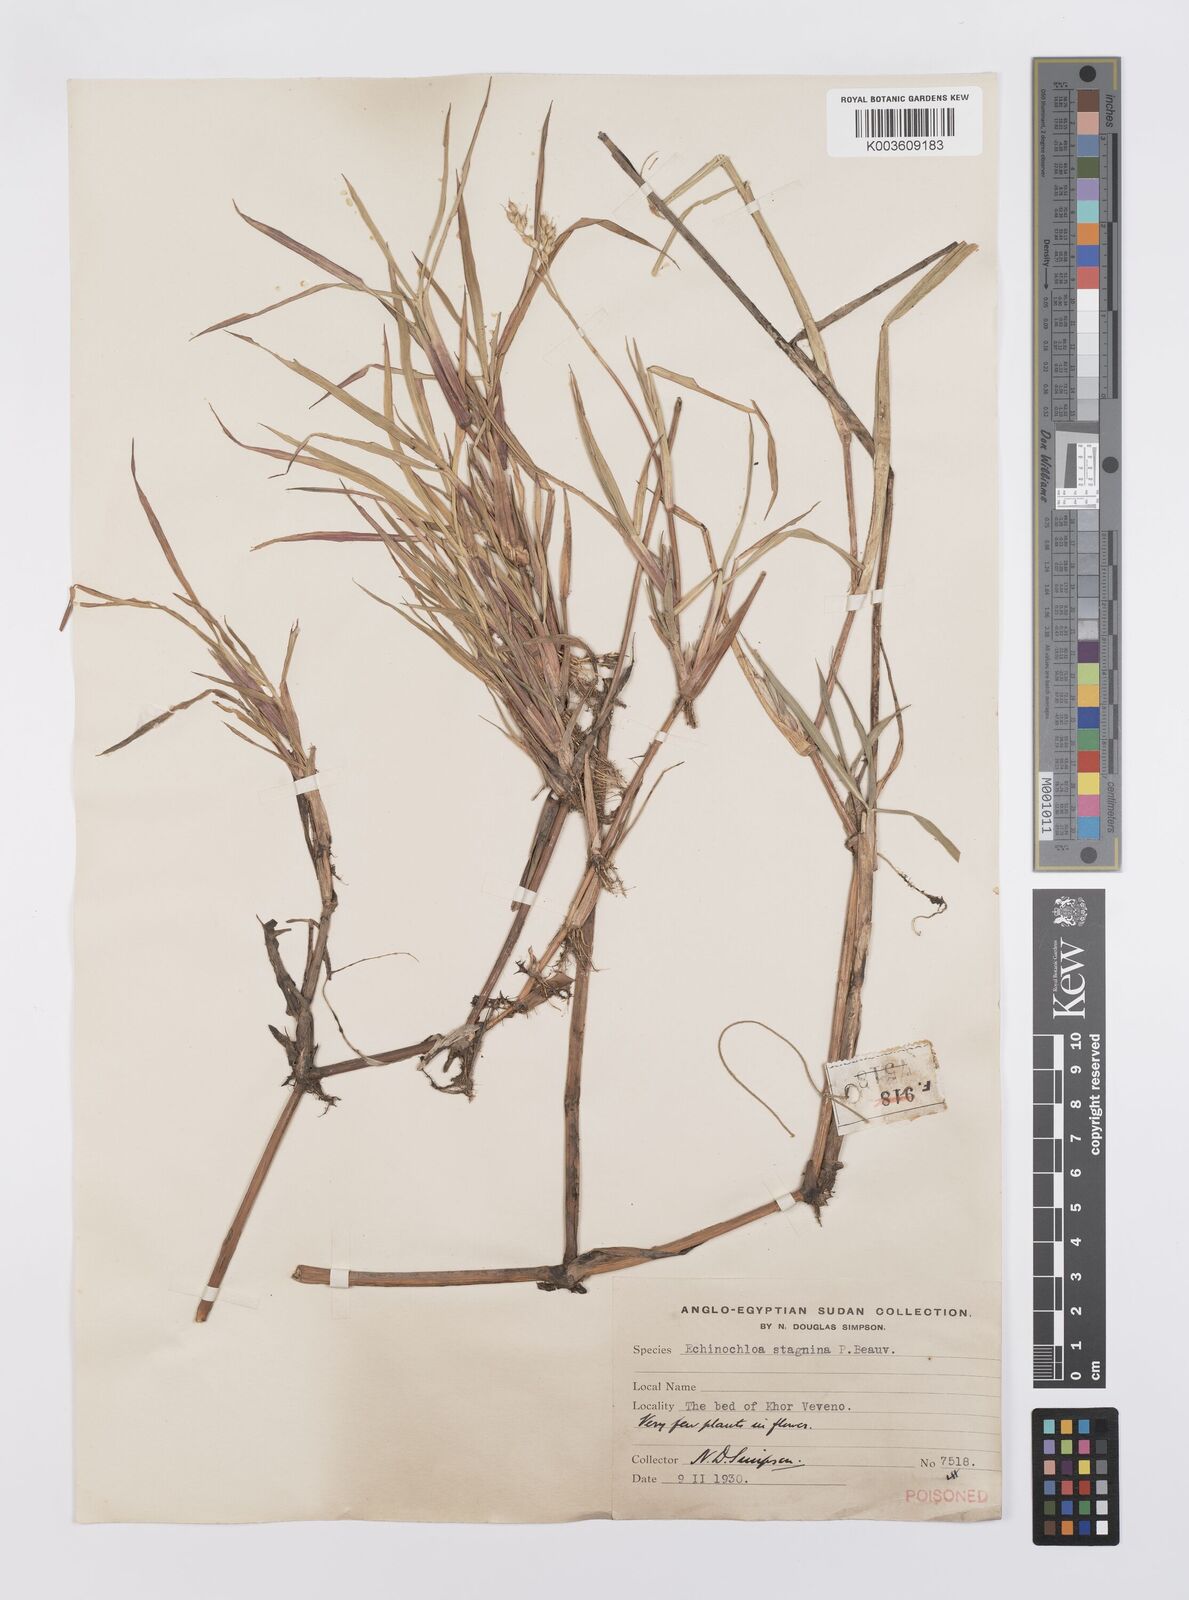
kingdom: Plantae
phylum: Tracheophyta
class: Liliopsida
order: Poales
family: Poaceae
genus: Echinochloa
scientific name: Echinochloa stagnina
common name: Burgu grass
